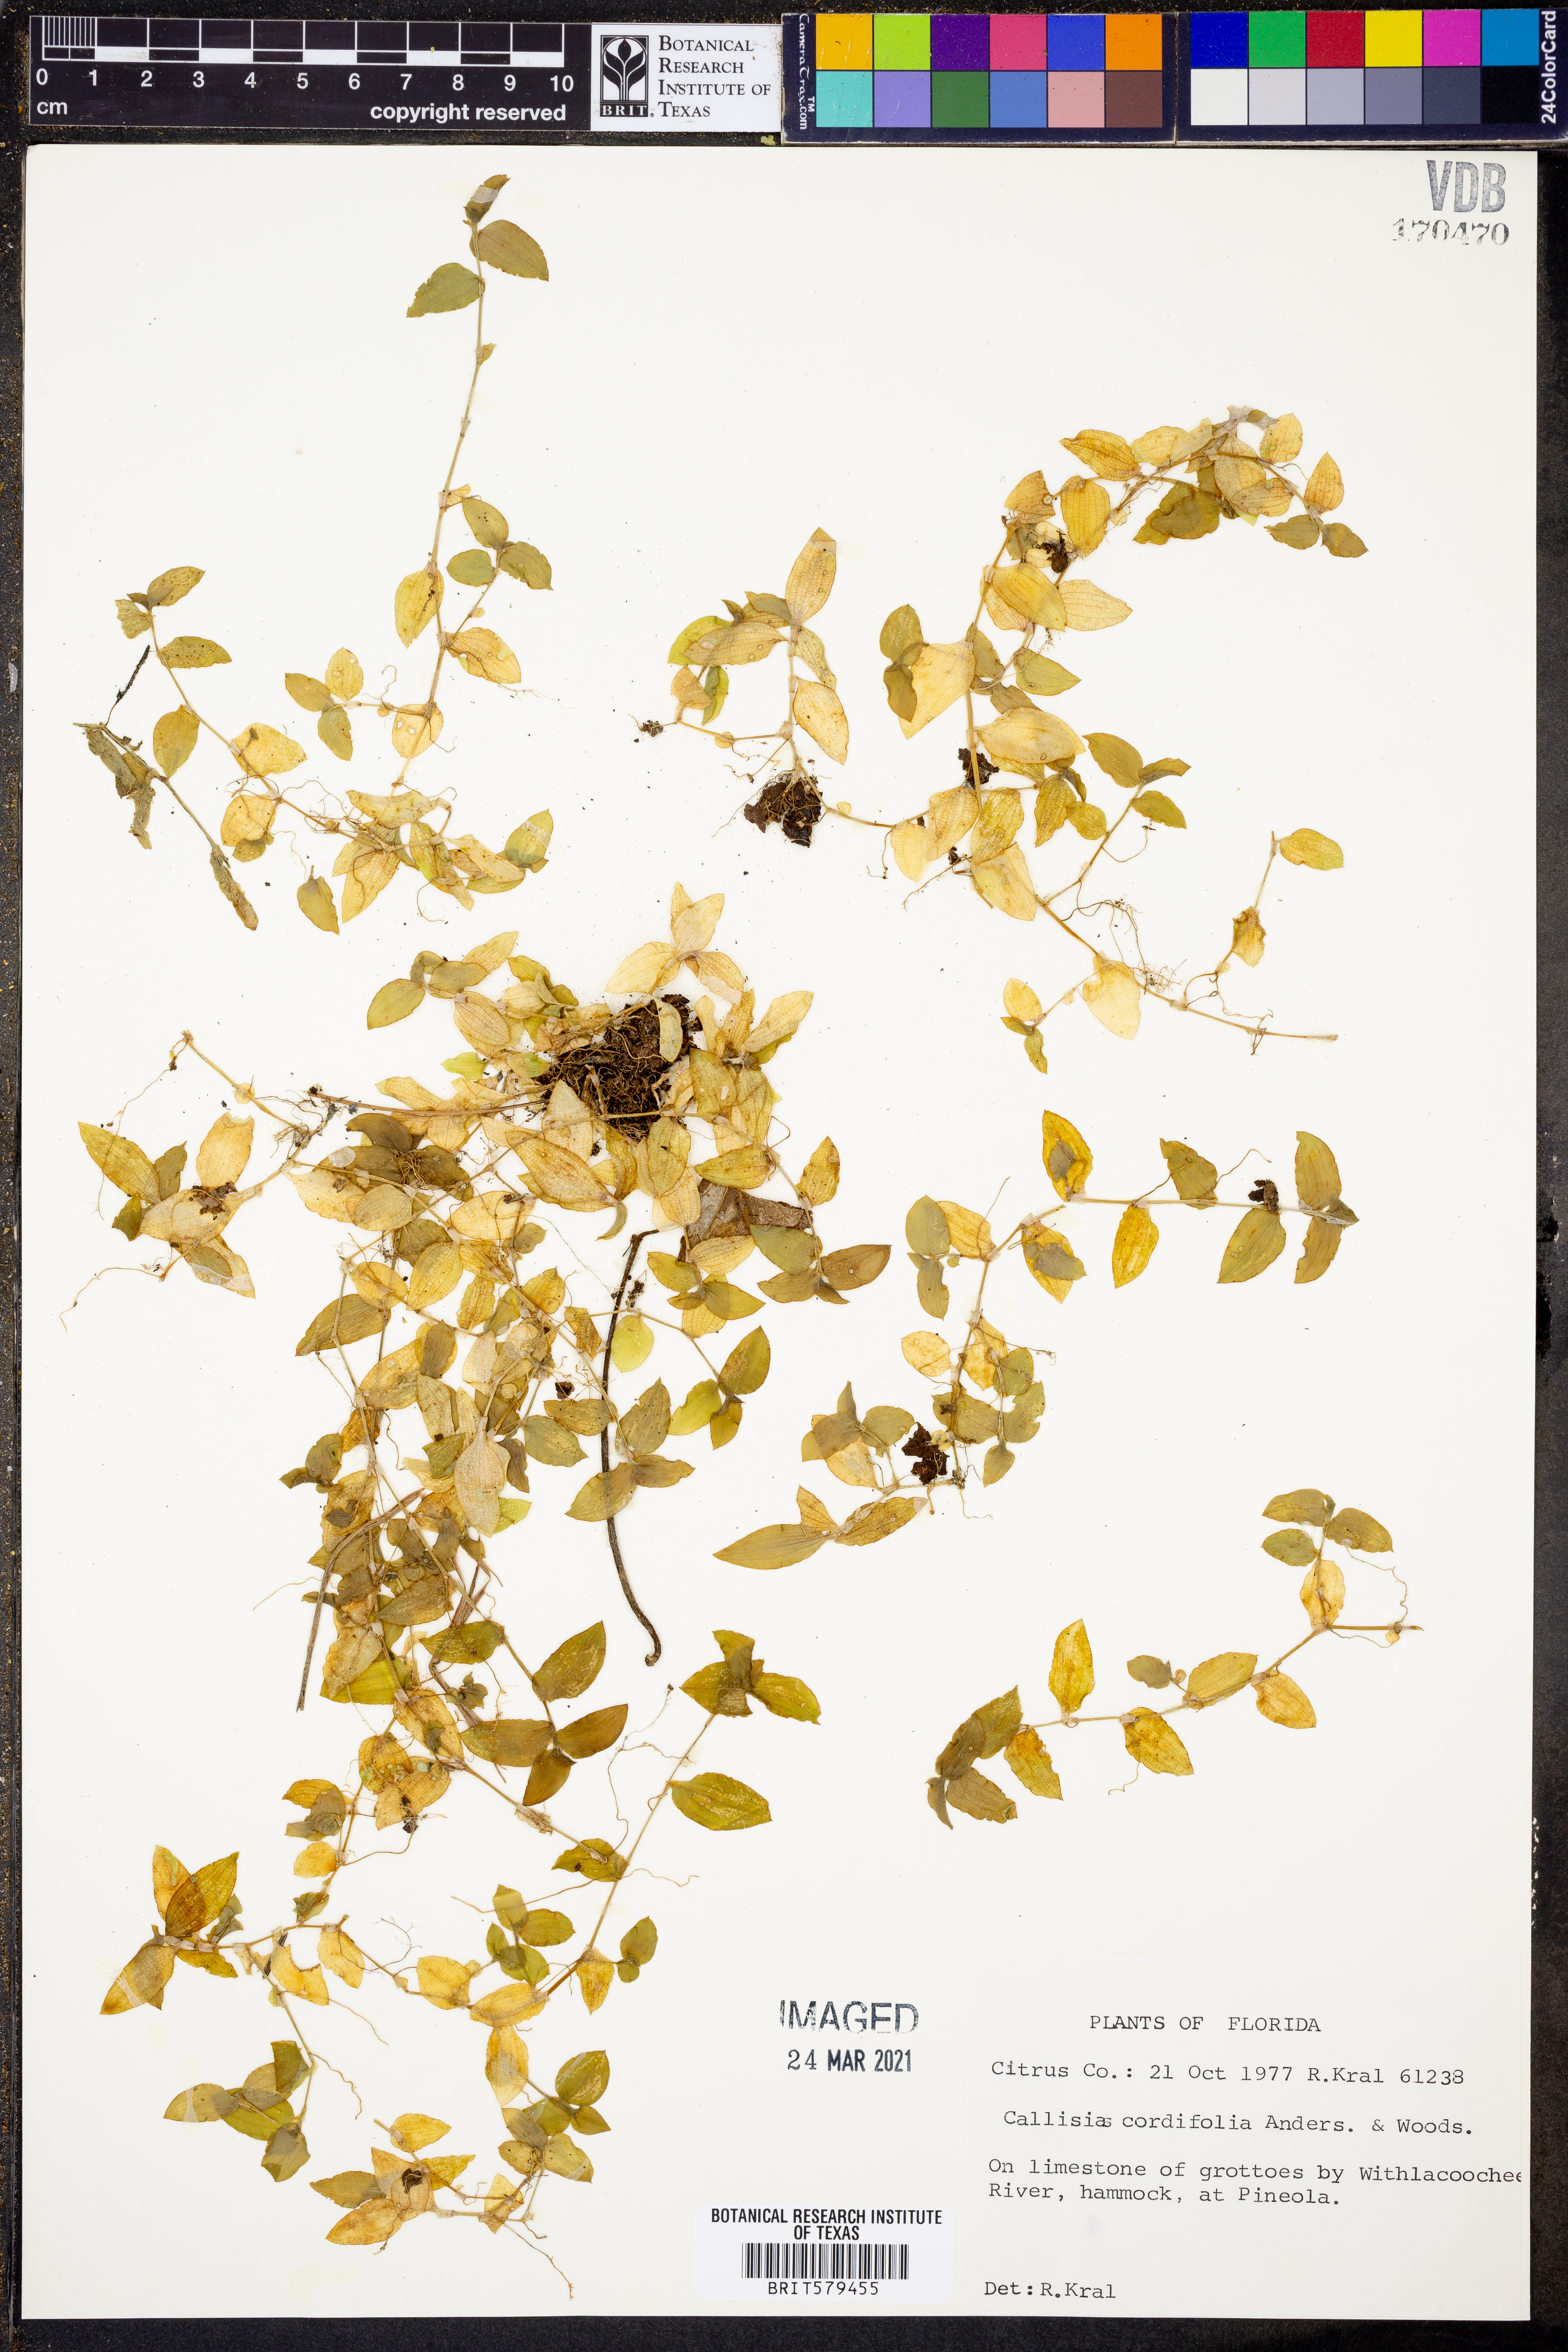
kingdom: Plantae
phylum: Tracheophyta
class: Liliopsida
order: Commelinales
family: Commelinaceae
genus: Callisia
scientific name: Callisia cordifolia
